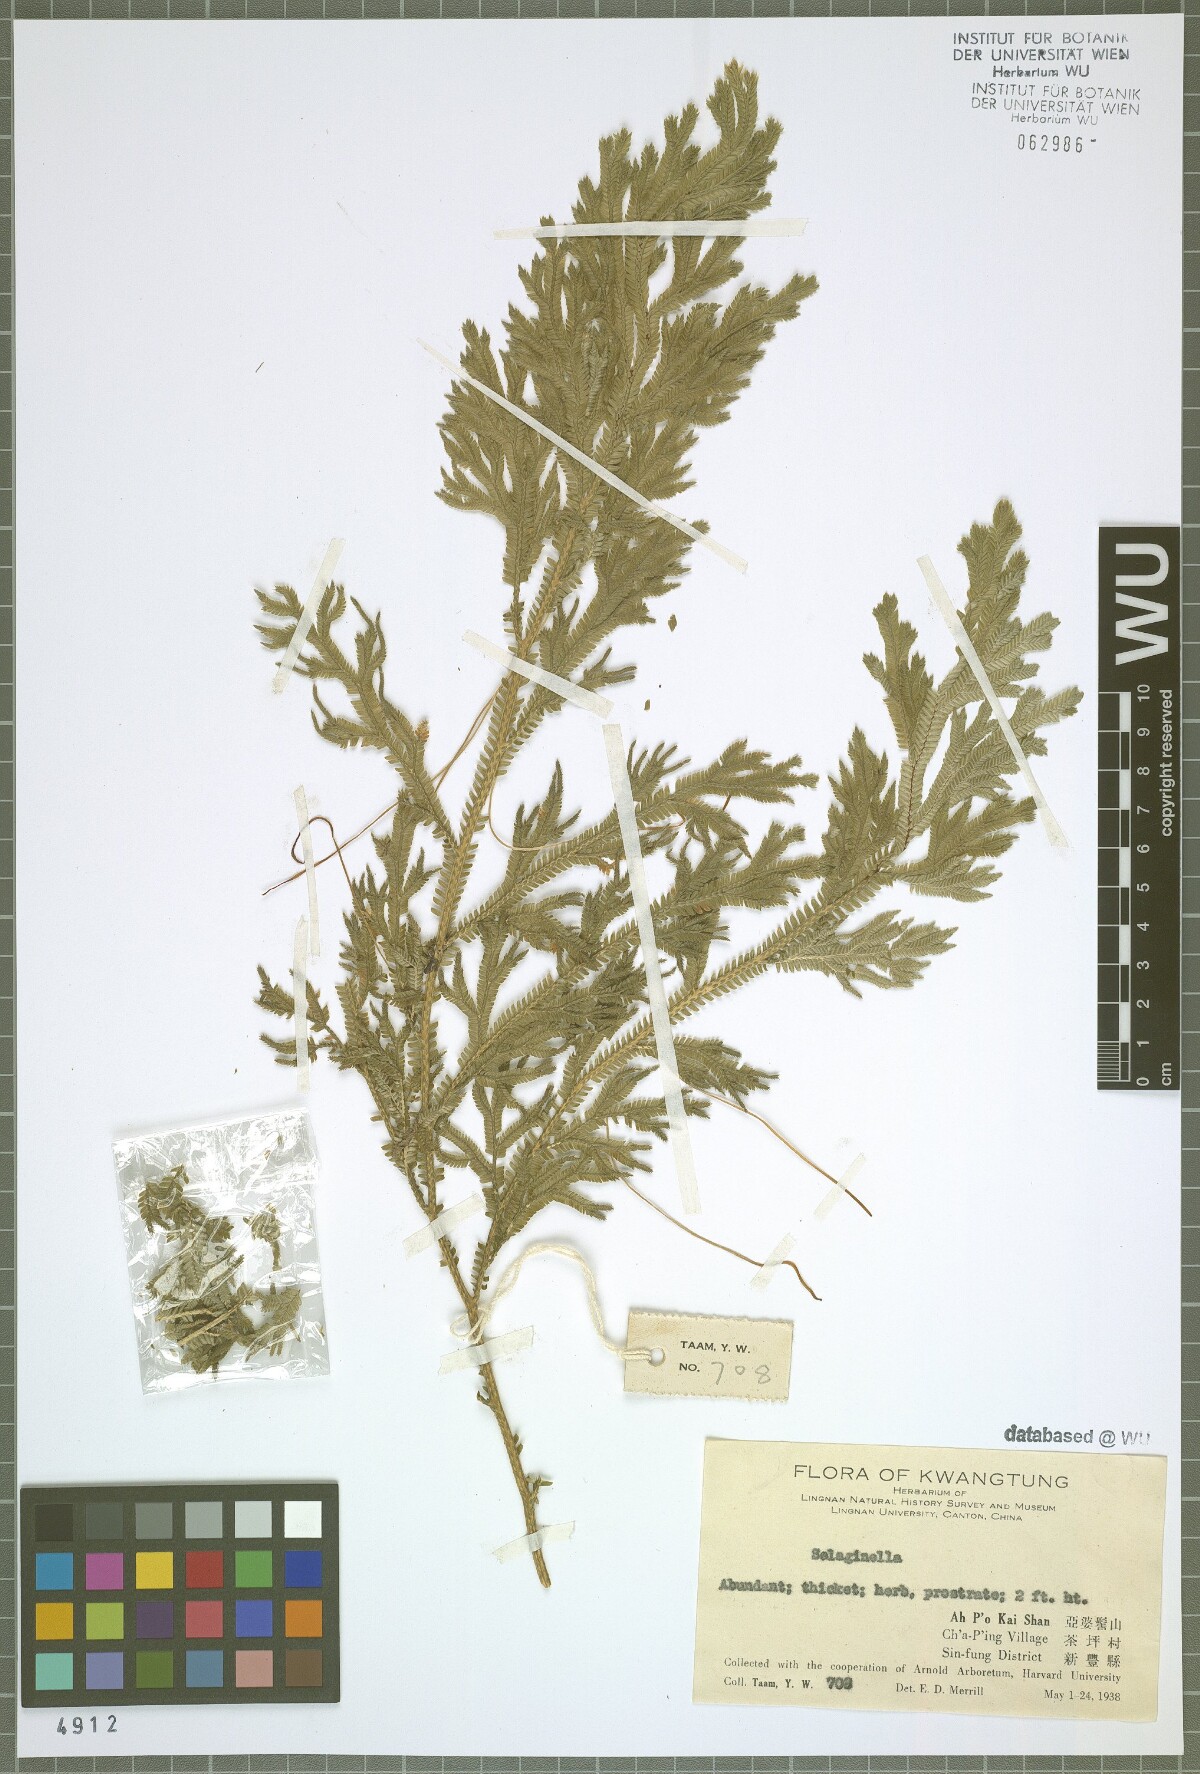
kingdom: Plantae
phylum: Tracheophyta
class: Lycopodiopsida
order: Selaginellales
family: Selaginellaceae
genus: Selaginella
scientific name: Selaginella
